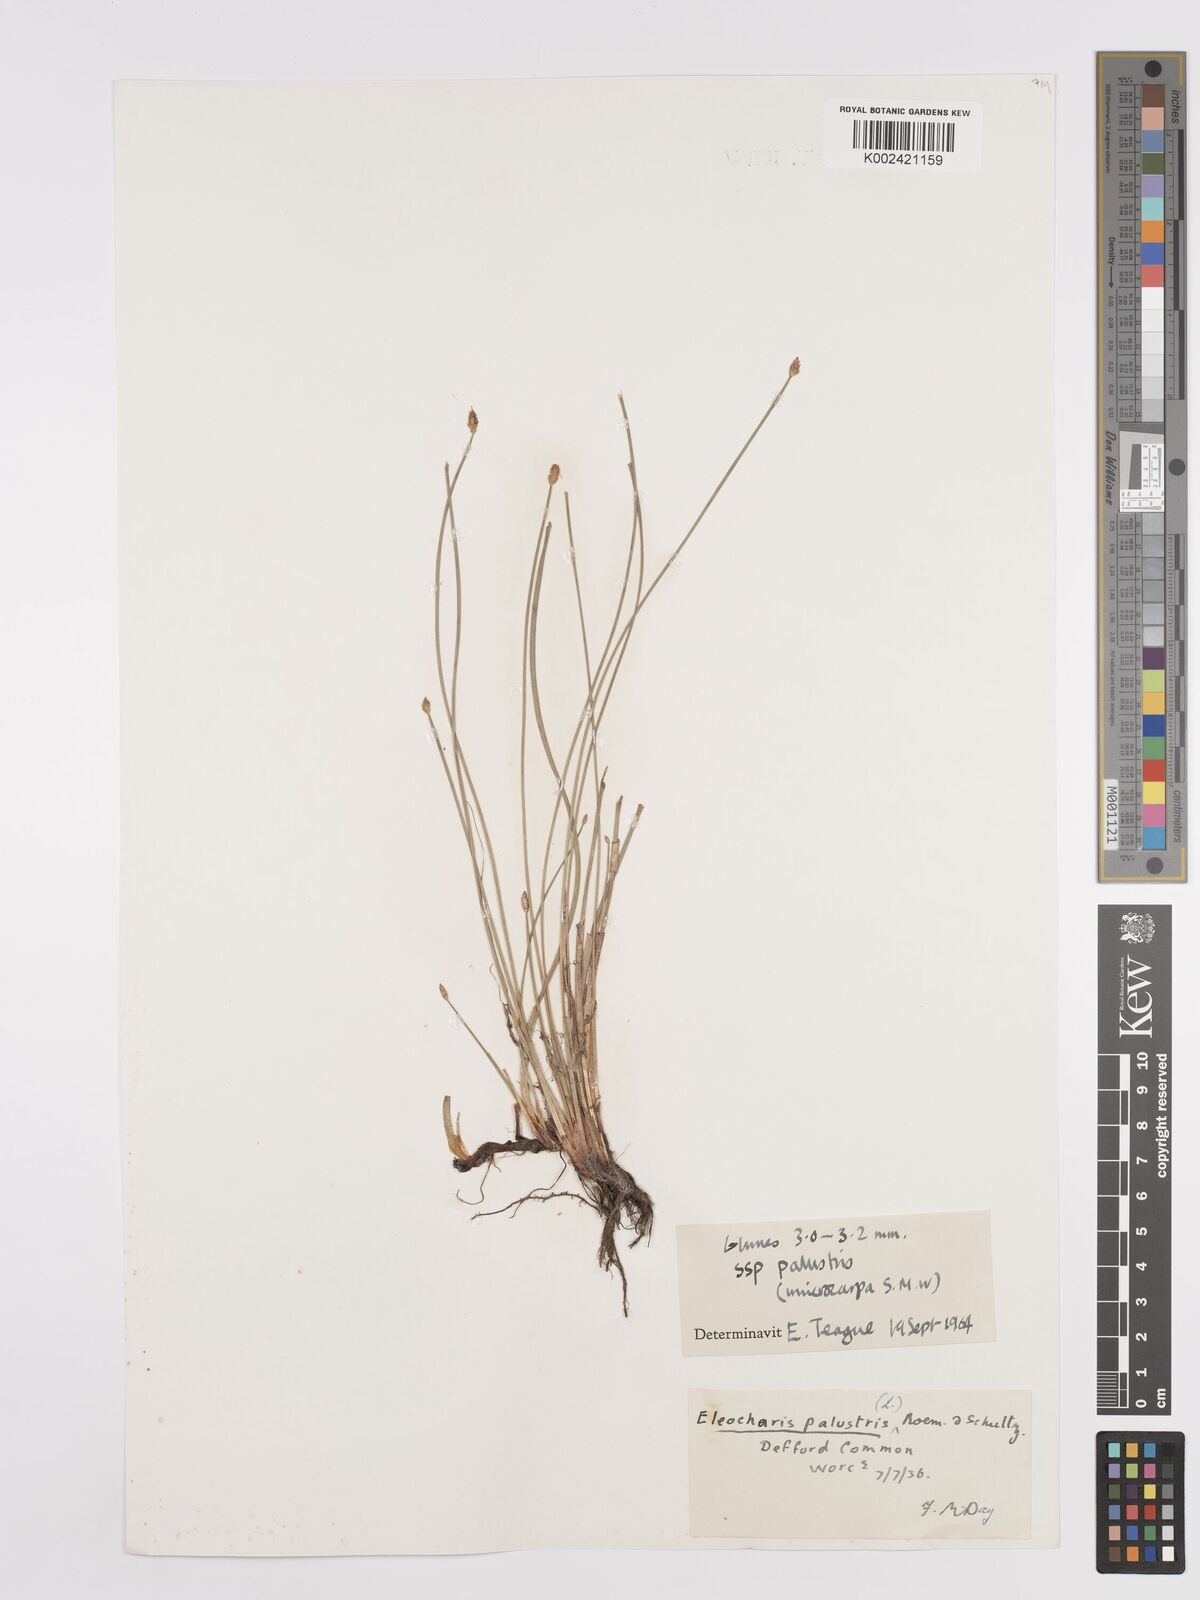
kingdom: Plantae
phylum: Tracheophyta
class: Liliopsida
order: Poales
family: Cyperaceae
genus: Eleocharis
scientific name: Eleocharis palustris
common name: Common spike-rush
